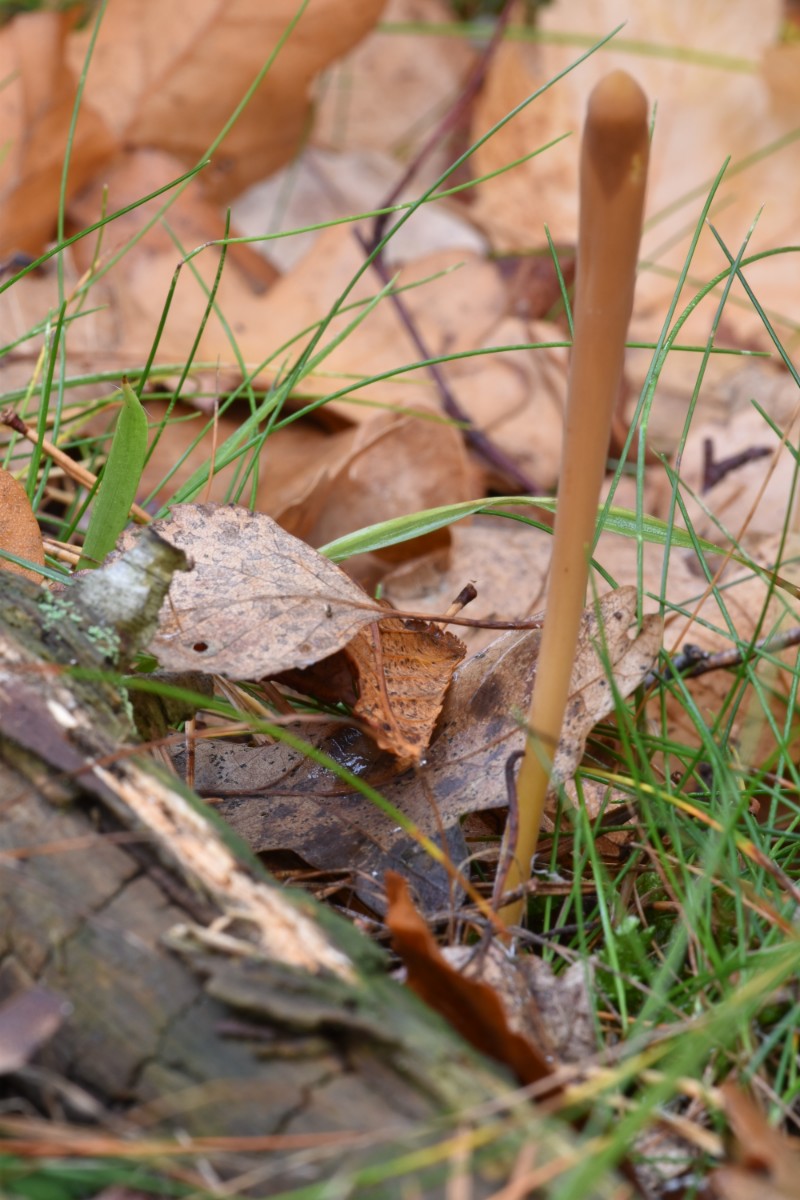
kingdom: Fungi
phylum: Basidiomycota
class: Agaricomycetes
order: Agaricales
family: Typhulaceae
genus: Typhula
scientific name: Typhula fistulosa
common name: pibet rørkølle
